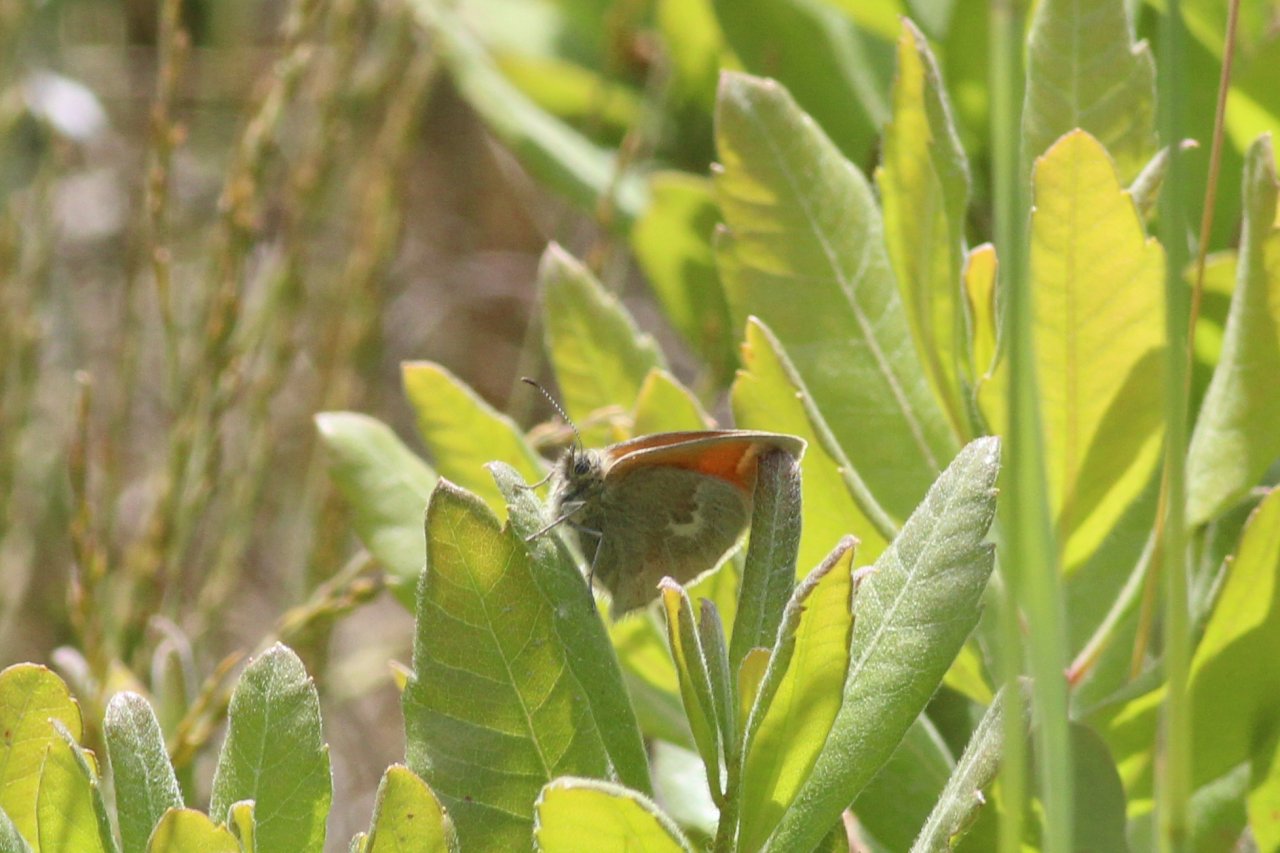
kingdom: Animalia
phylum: Arthropoda
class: Insecta
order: Lepidoptera
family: Nymphalidae
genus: Coenonympha
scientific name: Coenonympha tullia
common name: Large Heath
